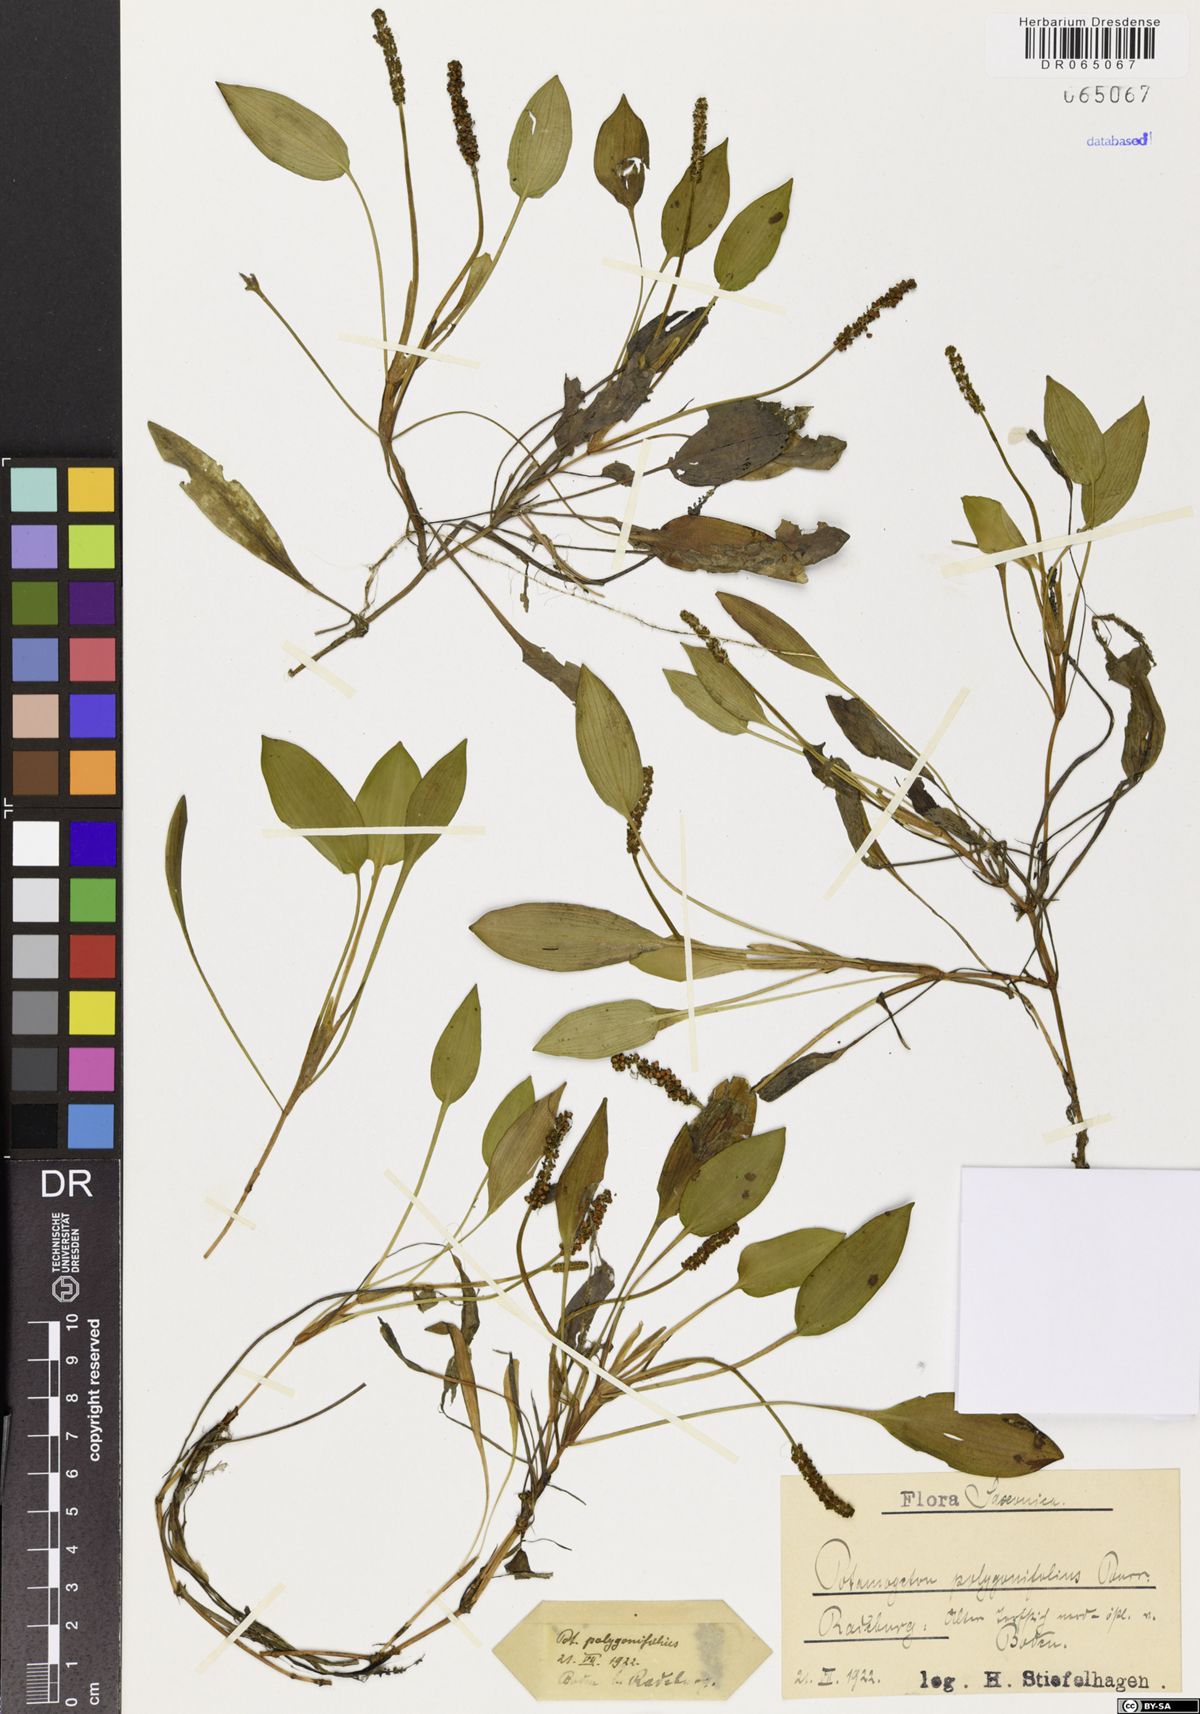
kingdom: Plantae
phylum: Tracheophyta
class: Liliopsida
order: Alismatales
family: Potamogetonaceae
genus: Potamogeton
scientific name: Potamogeton polygonifolius
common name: Bog pondweed
